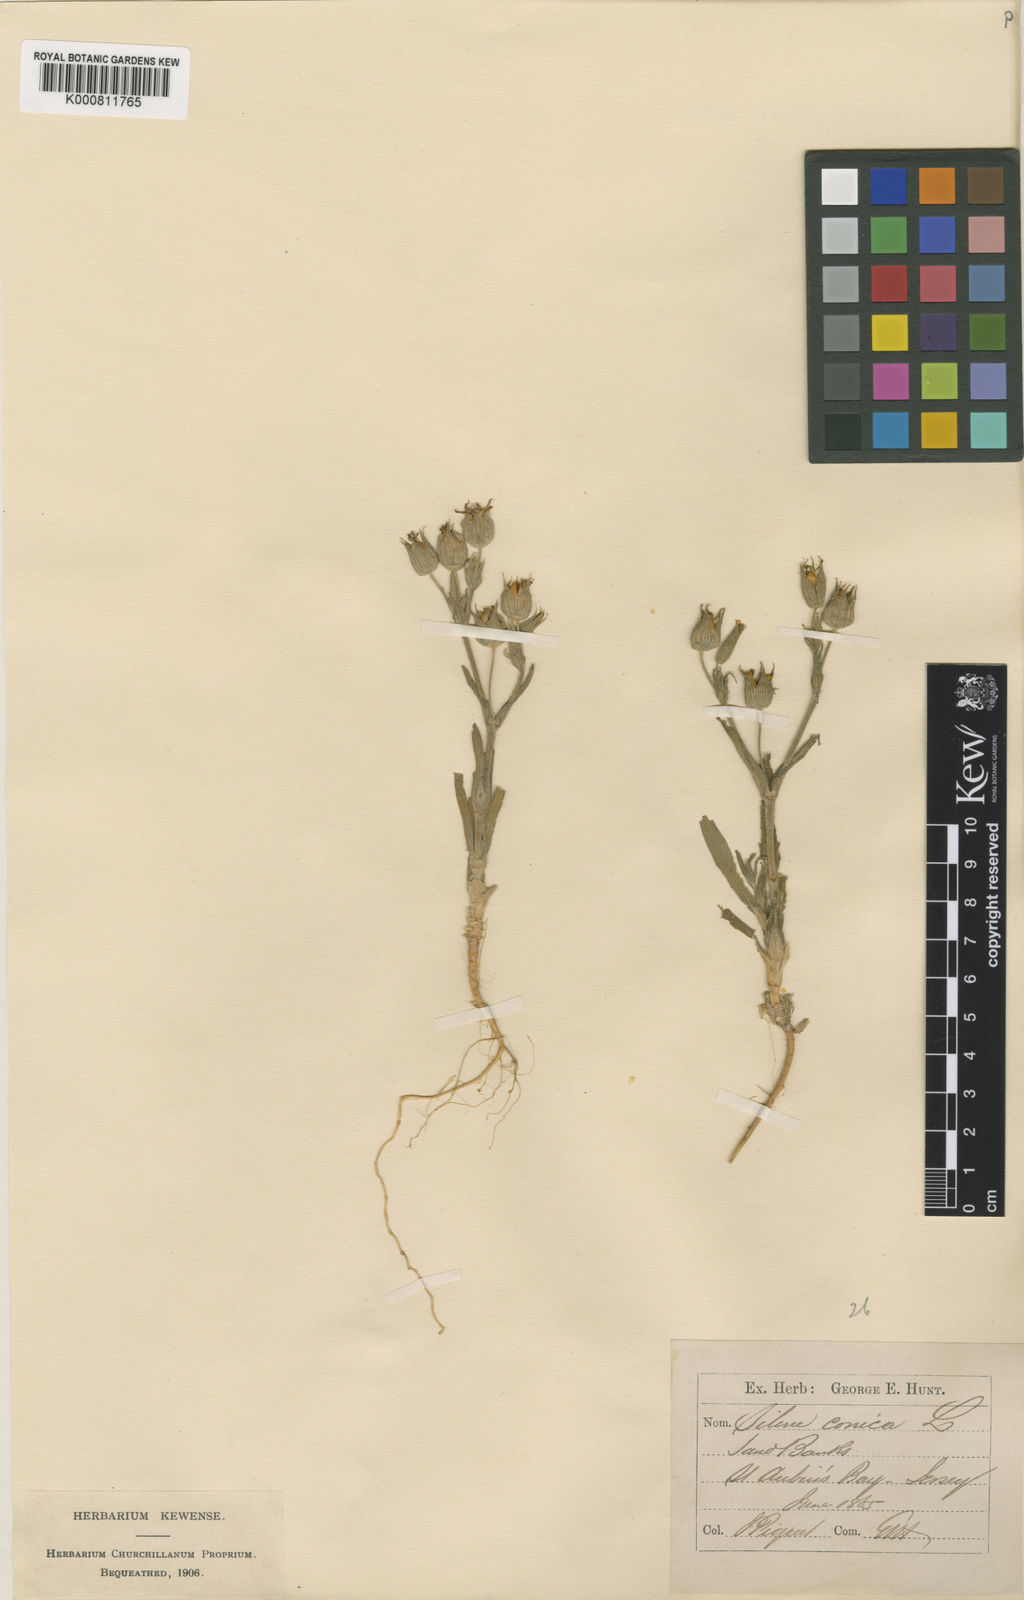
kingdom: Plantae
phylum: Tracheophyta
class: Magnoliopsida
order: Caryophyllales
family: Caryophyllaceae
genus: Silene
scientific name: Silene conica
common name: Sand catchfly
